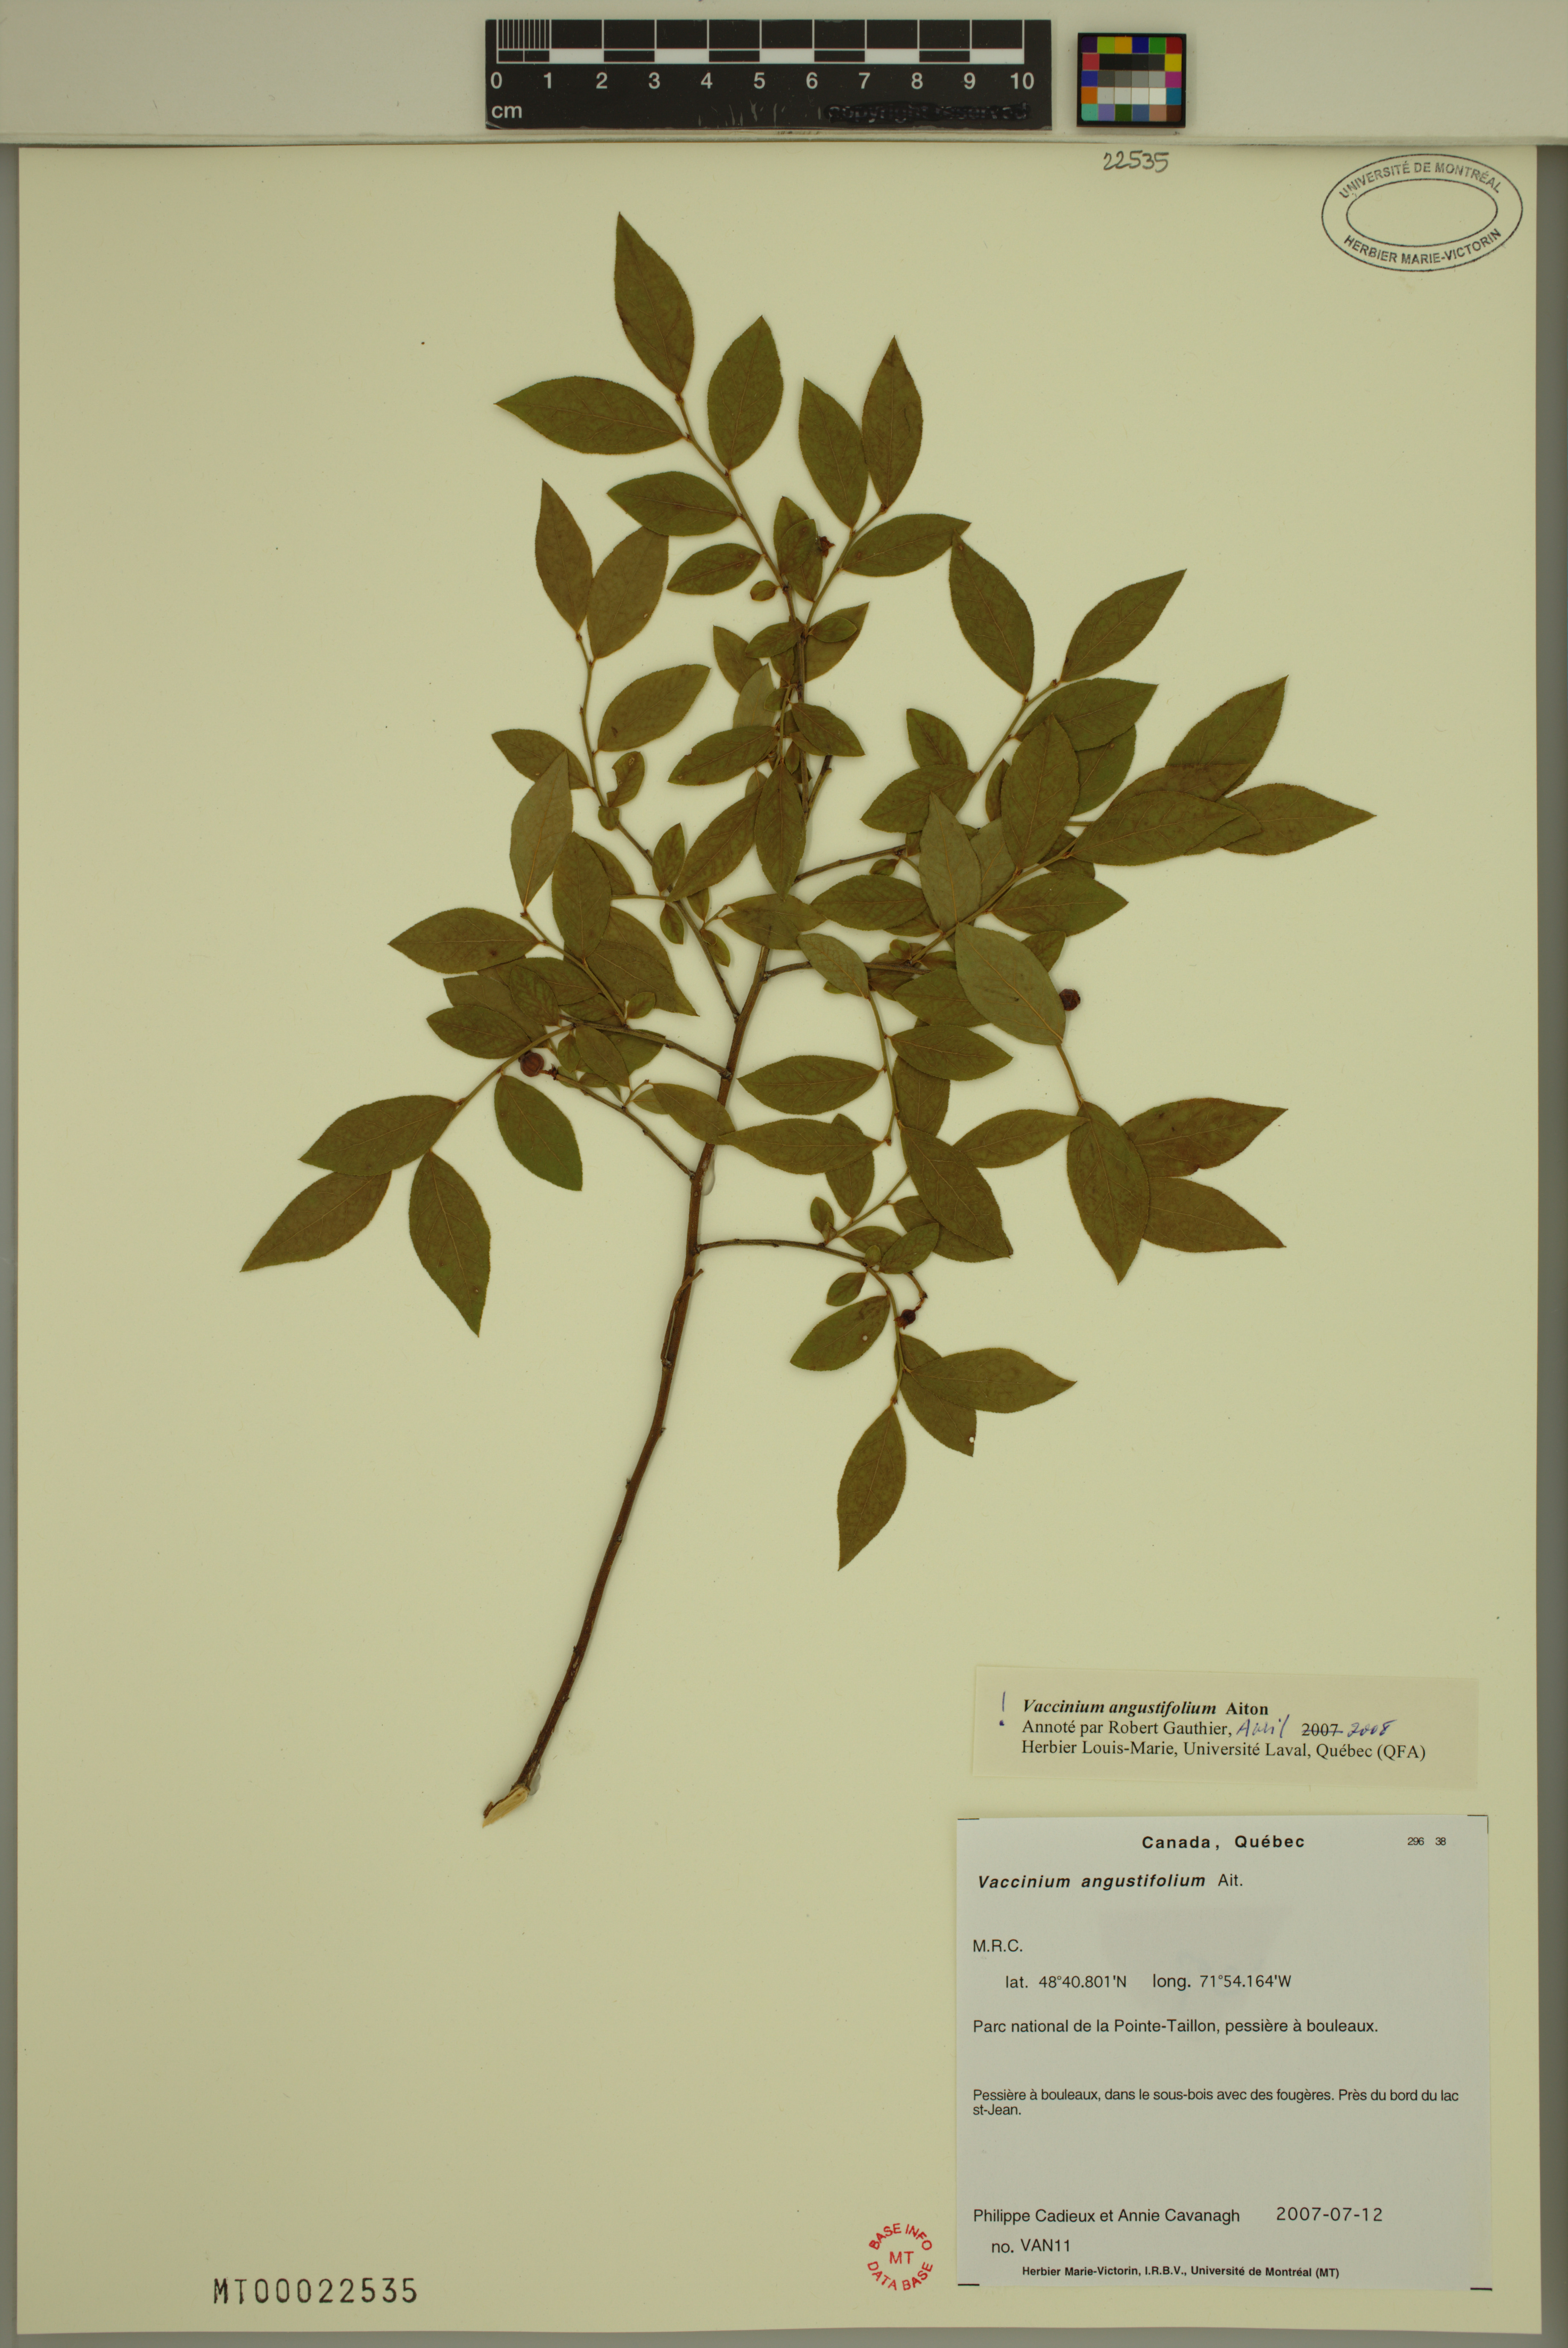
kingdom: Plantae
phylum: Tracheophyta
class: Magnoliopsida
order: Ericales
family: Ericaceae
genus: Vaccinium
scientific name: Vaccinium angustifolium
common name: Early lowbush blueberry
